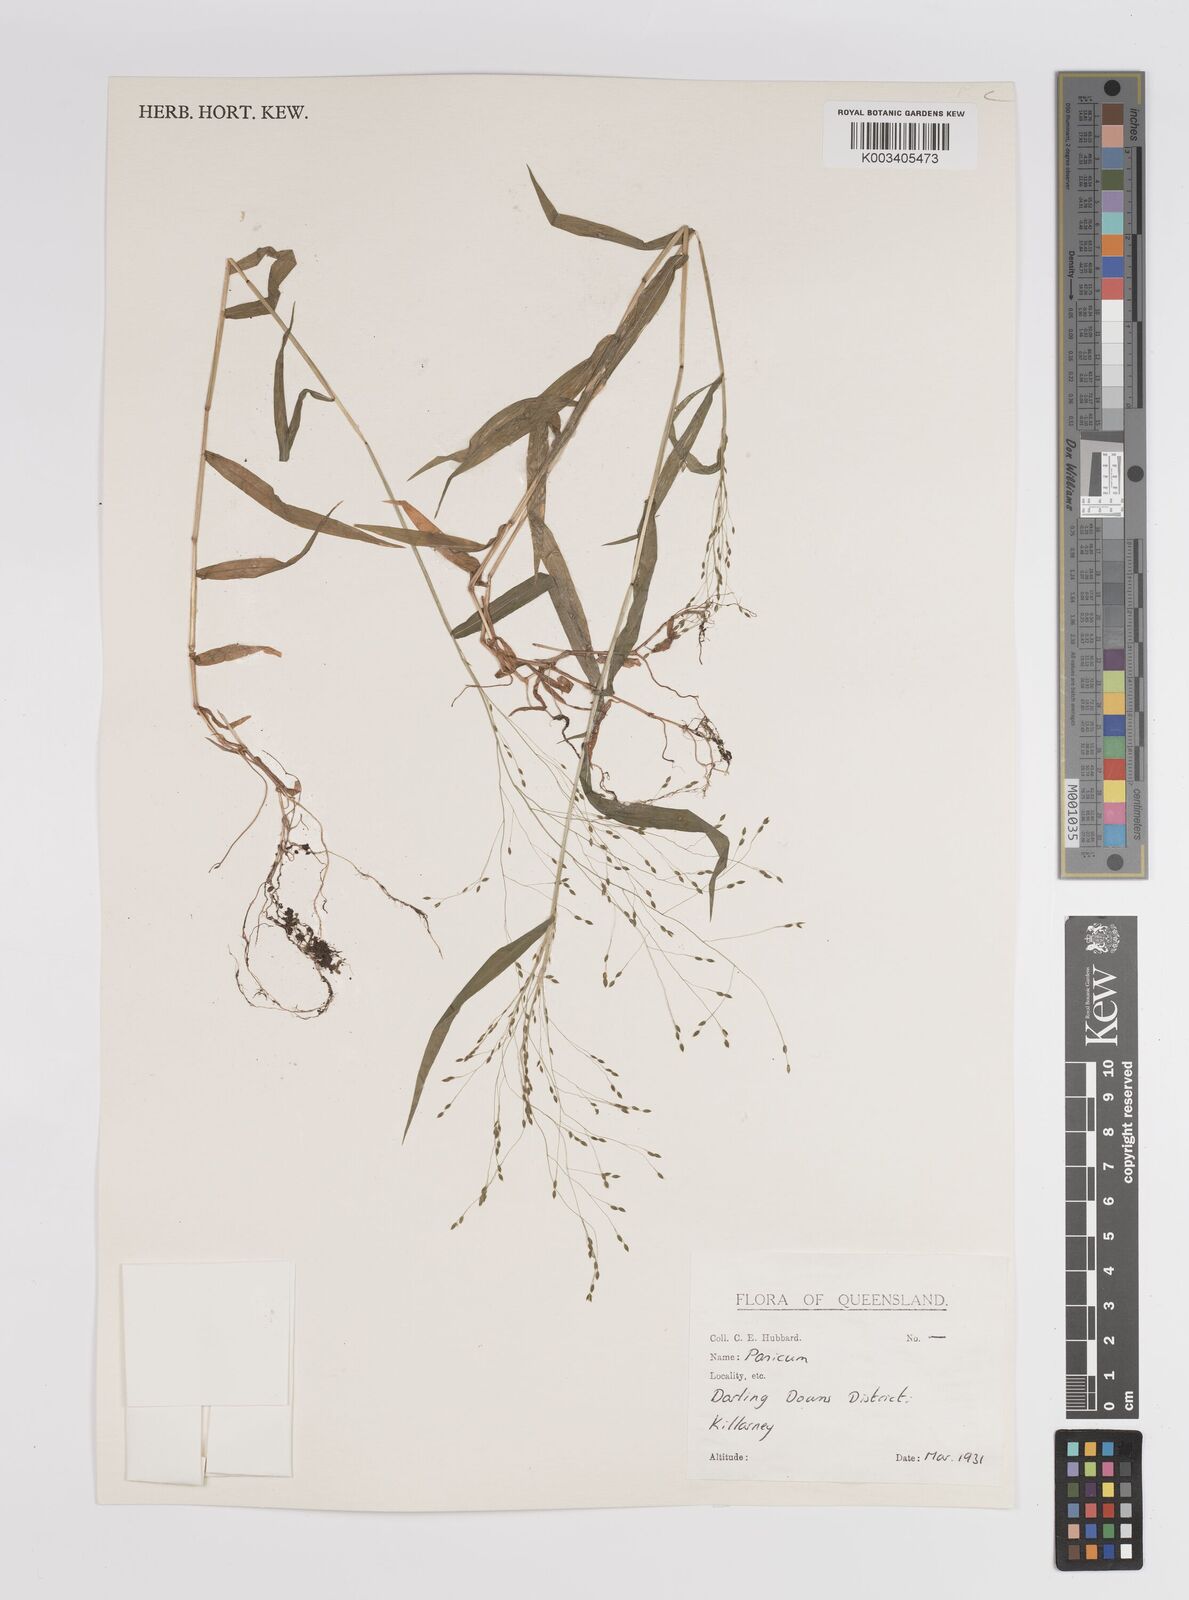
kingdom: Plantae
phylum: Tracheophyta
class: Liliopsida
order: Poales
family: Poaceae
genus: Panicum
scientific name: Panicum
